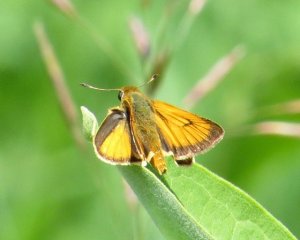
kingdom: Animalia
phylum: Arthropoda
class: Insecta
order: Lepidoptera
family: Hesperiidae
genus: Atrytone
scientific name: Atrytone delaware
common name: Delaware Skipper
